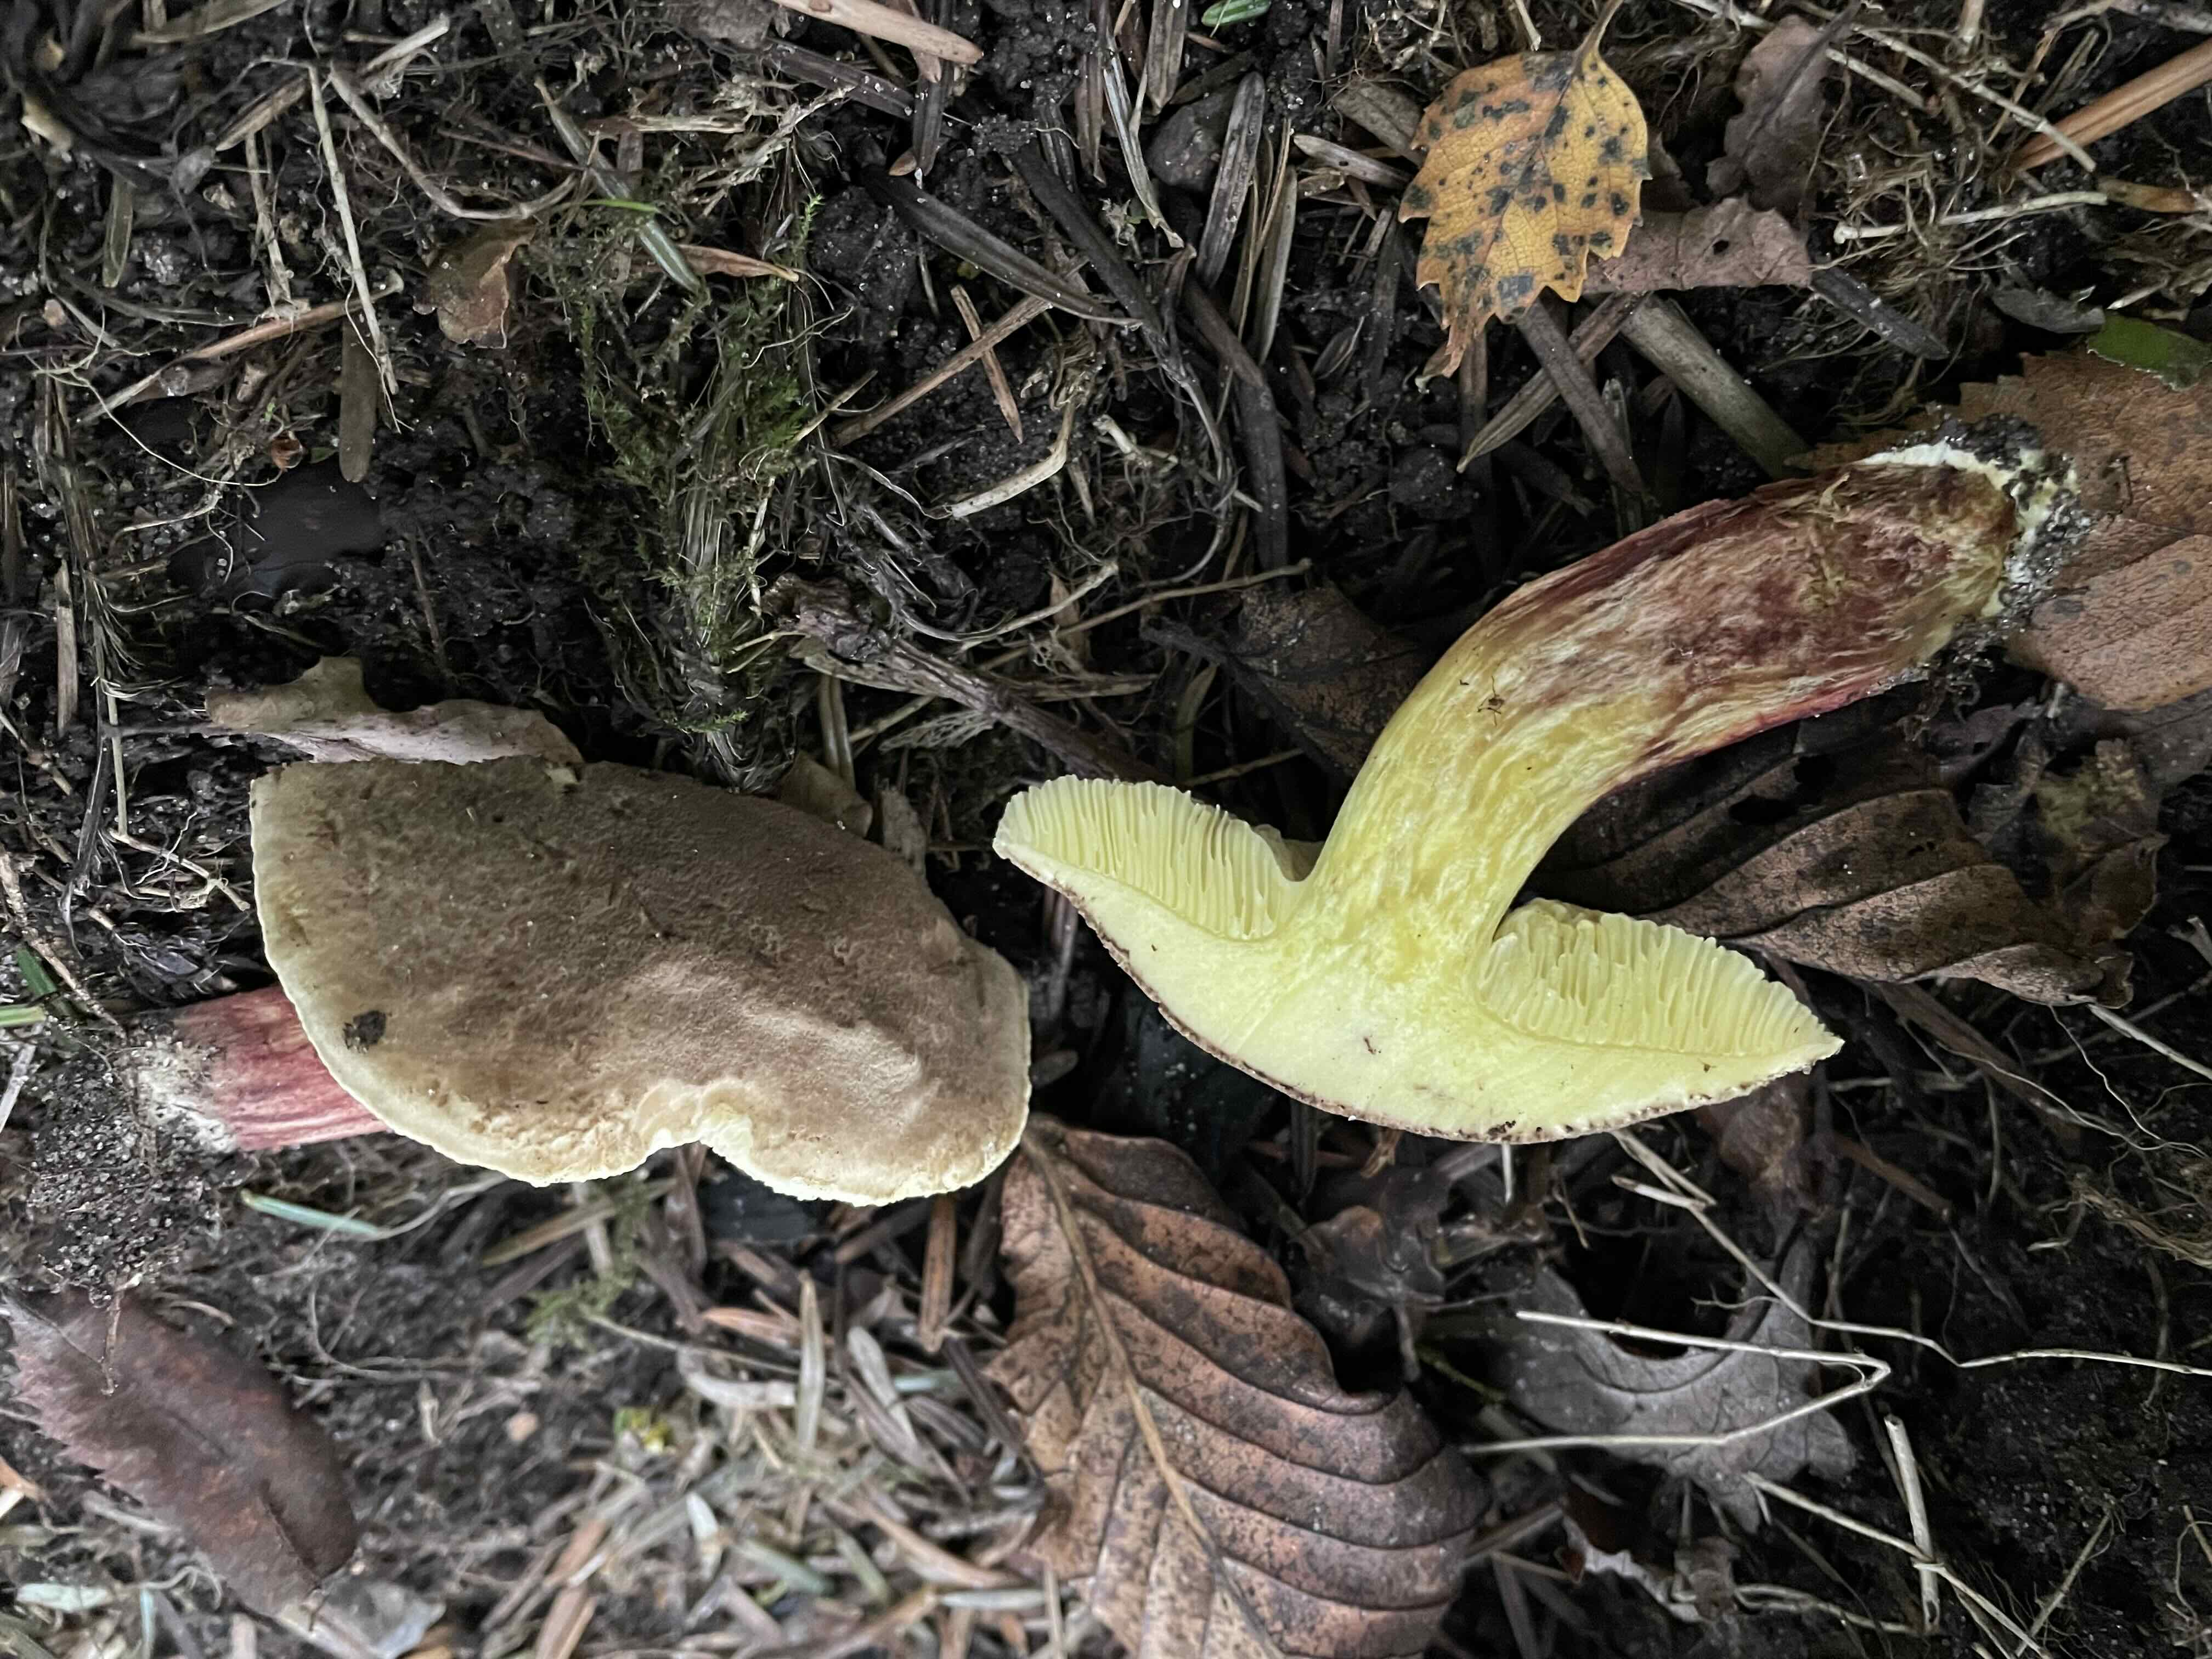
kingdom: Fungi
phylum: Basidiomycota
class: Agaricomycetes
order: Boletales
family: Boletaceae
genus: Xerocomellus
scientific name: Xerocomellus chrysenteron
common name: rødsprukken rørhat
